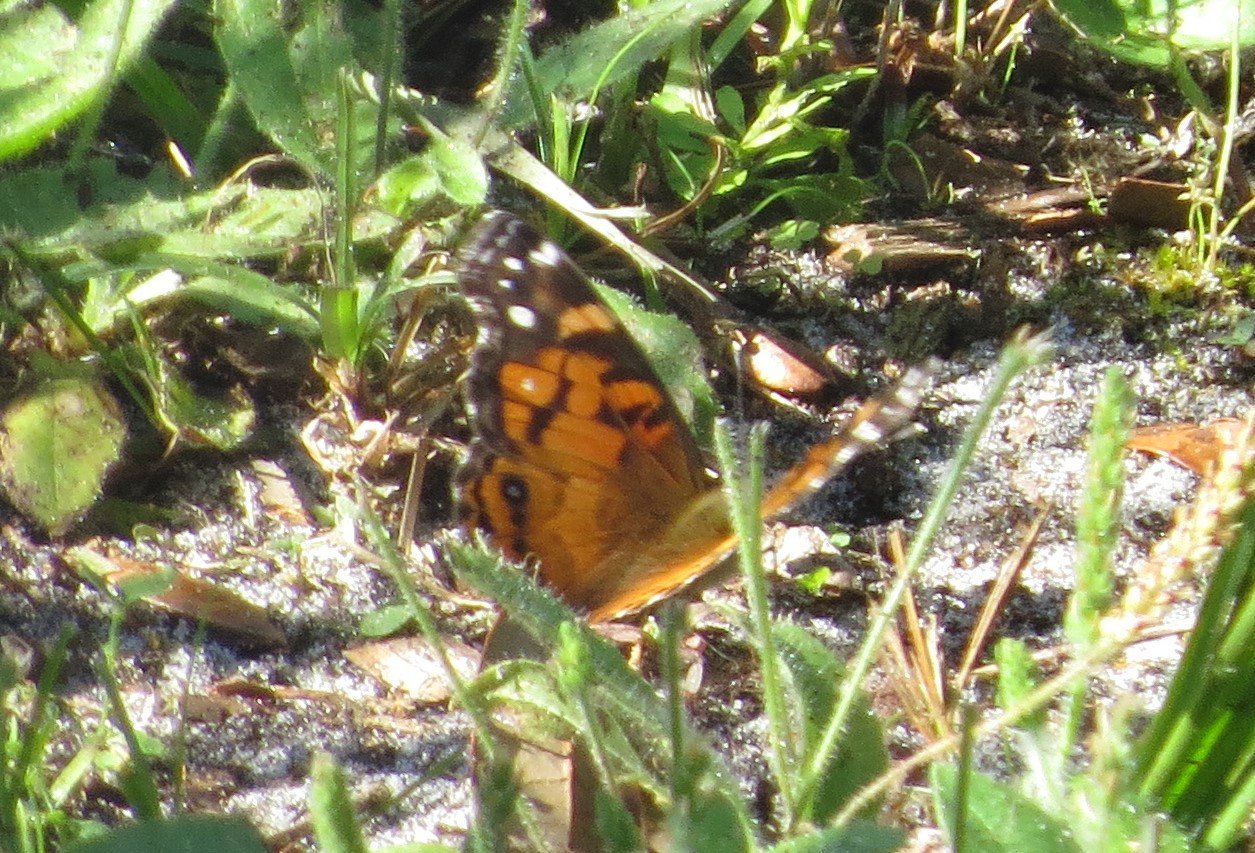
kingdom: Animalia
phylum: Arthropoda
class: Insecta
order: Lepidoptera
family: Nymphalidae
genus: Vanessa
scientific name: Vanessa virginiensis
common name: American Lady
